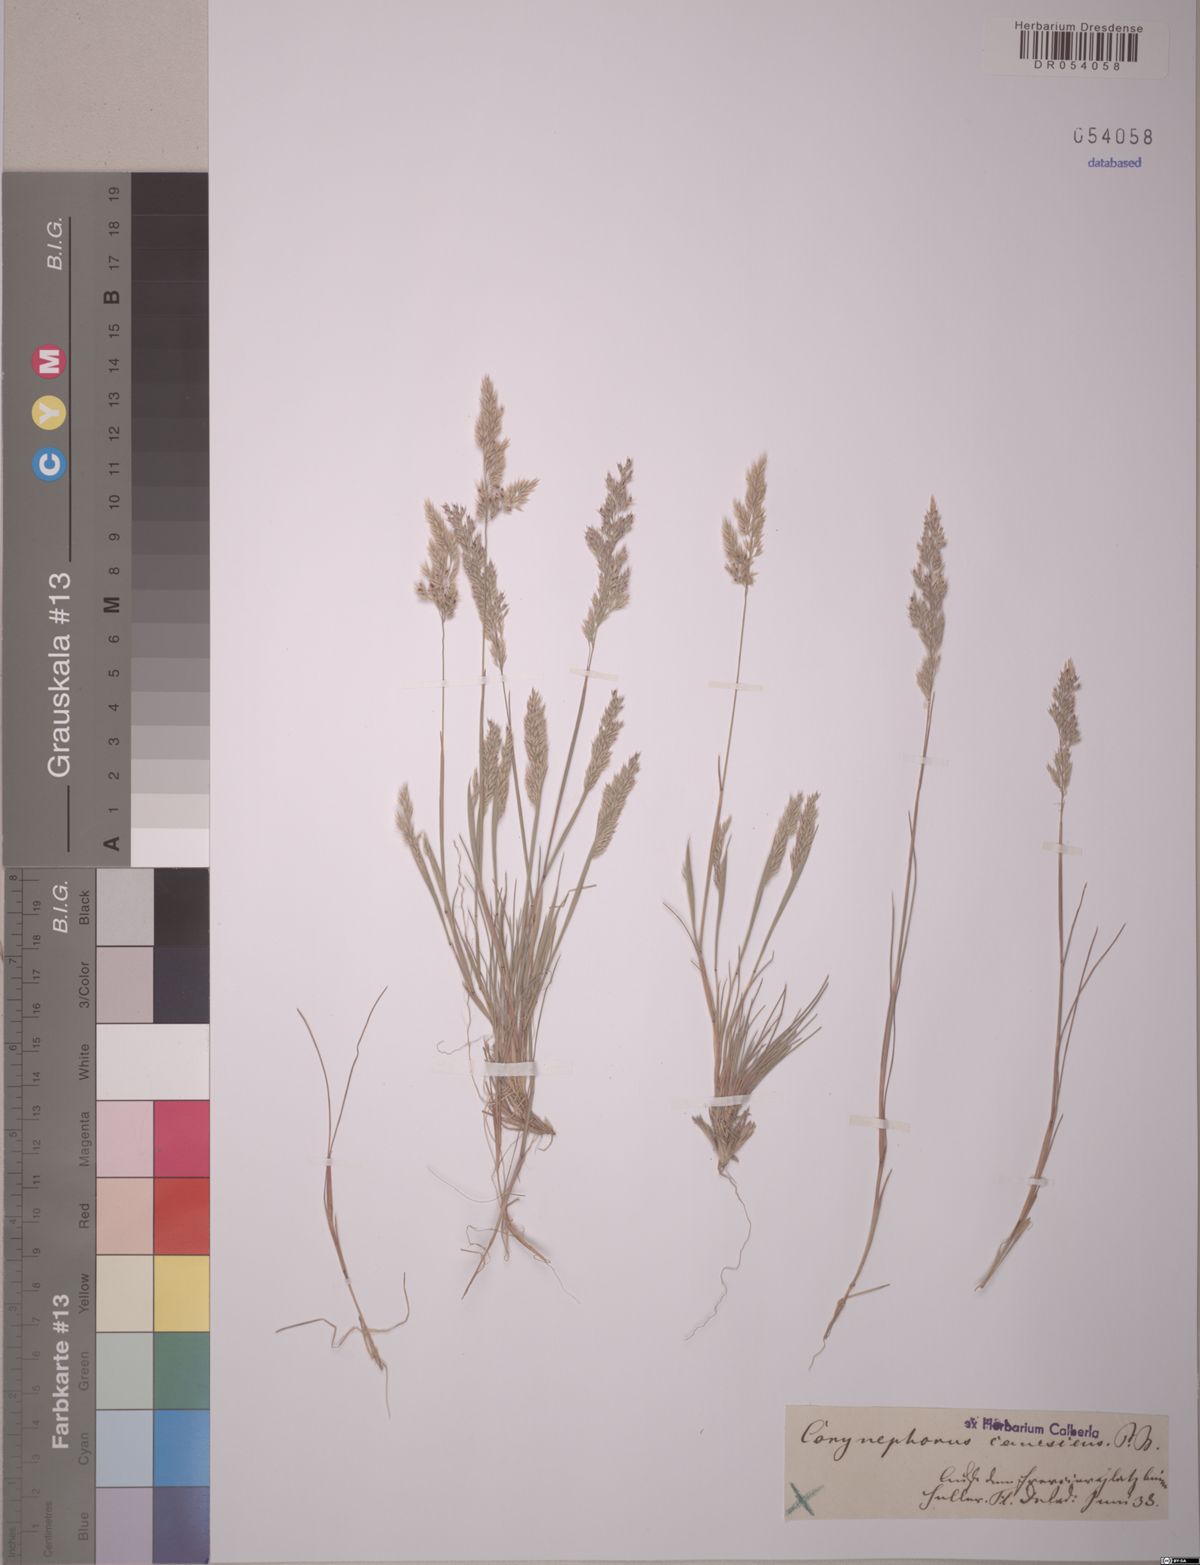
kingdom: Plantae
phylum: Tracheophyta
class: Liliopsida
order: Poales
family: Poaceae
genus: Corynephorus
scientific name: Corynephorus canescens
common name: Grey hair-grass
